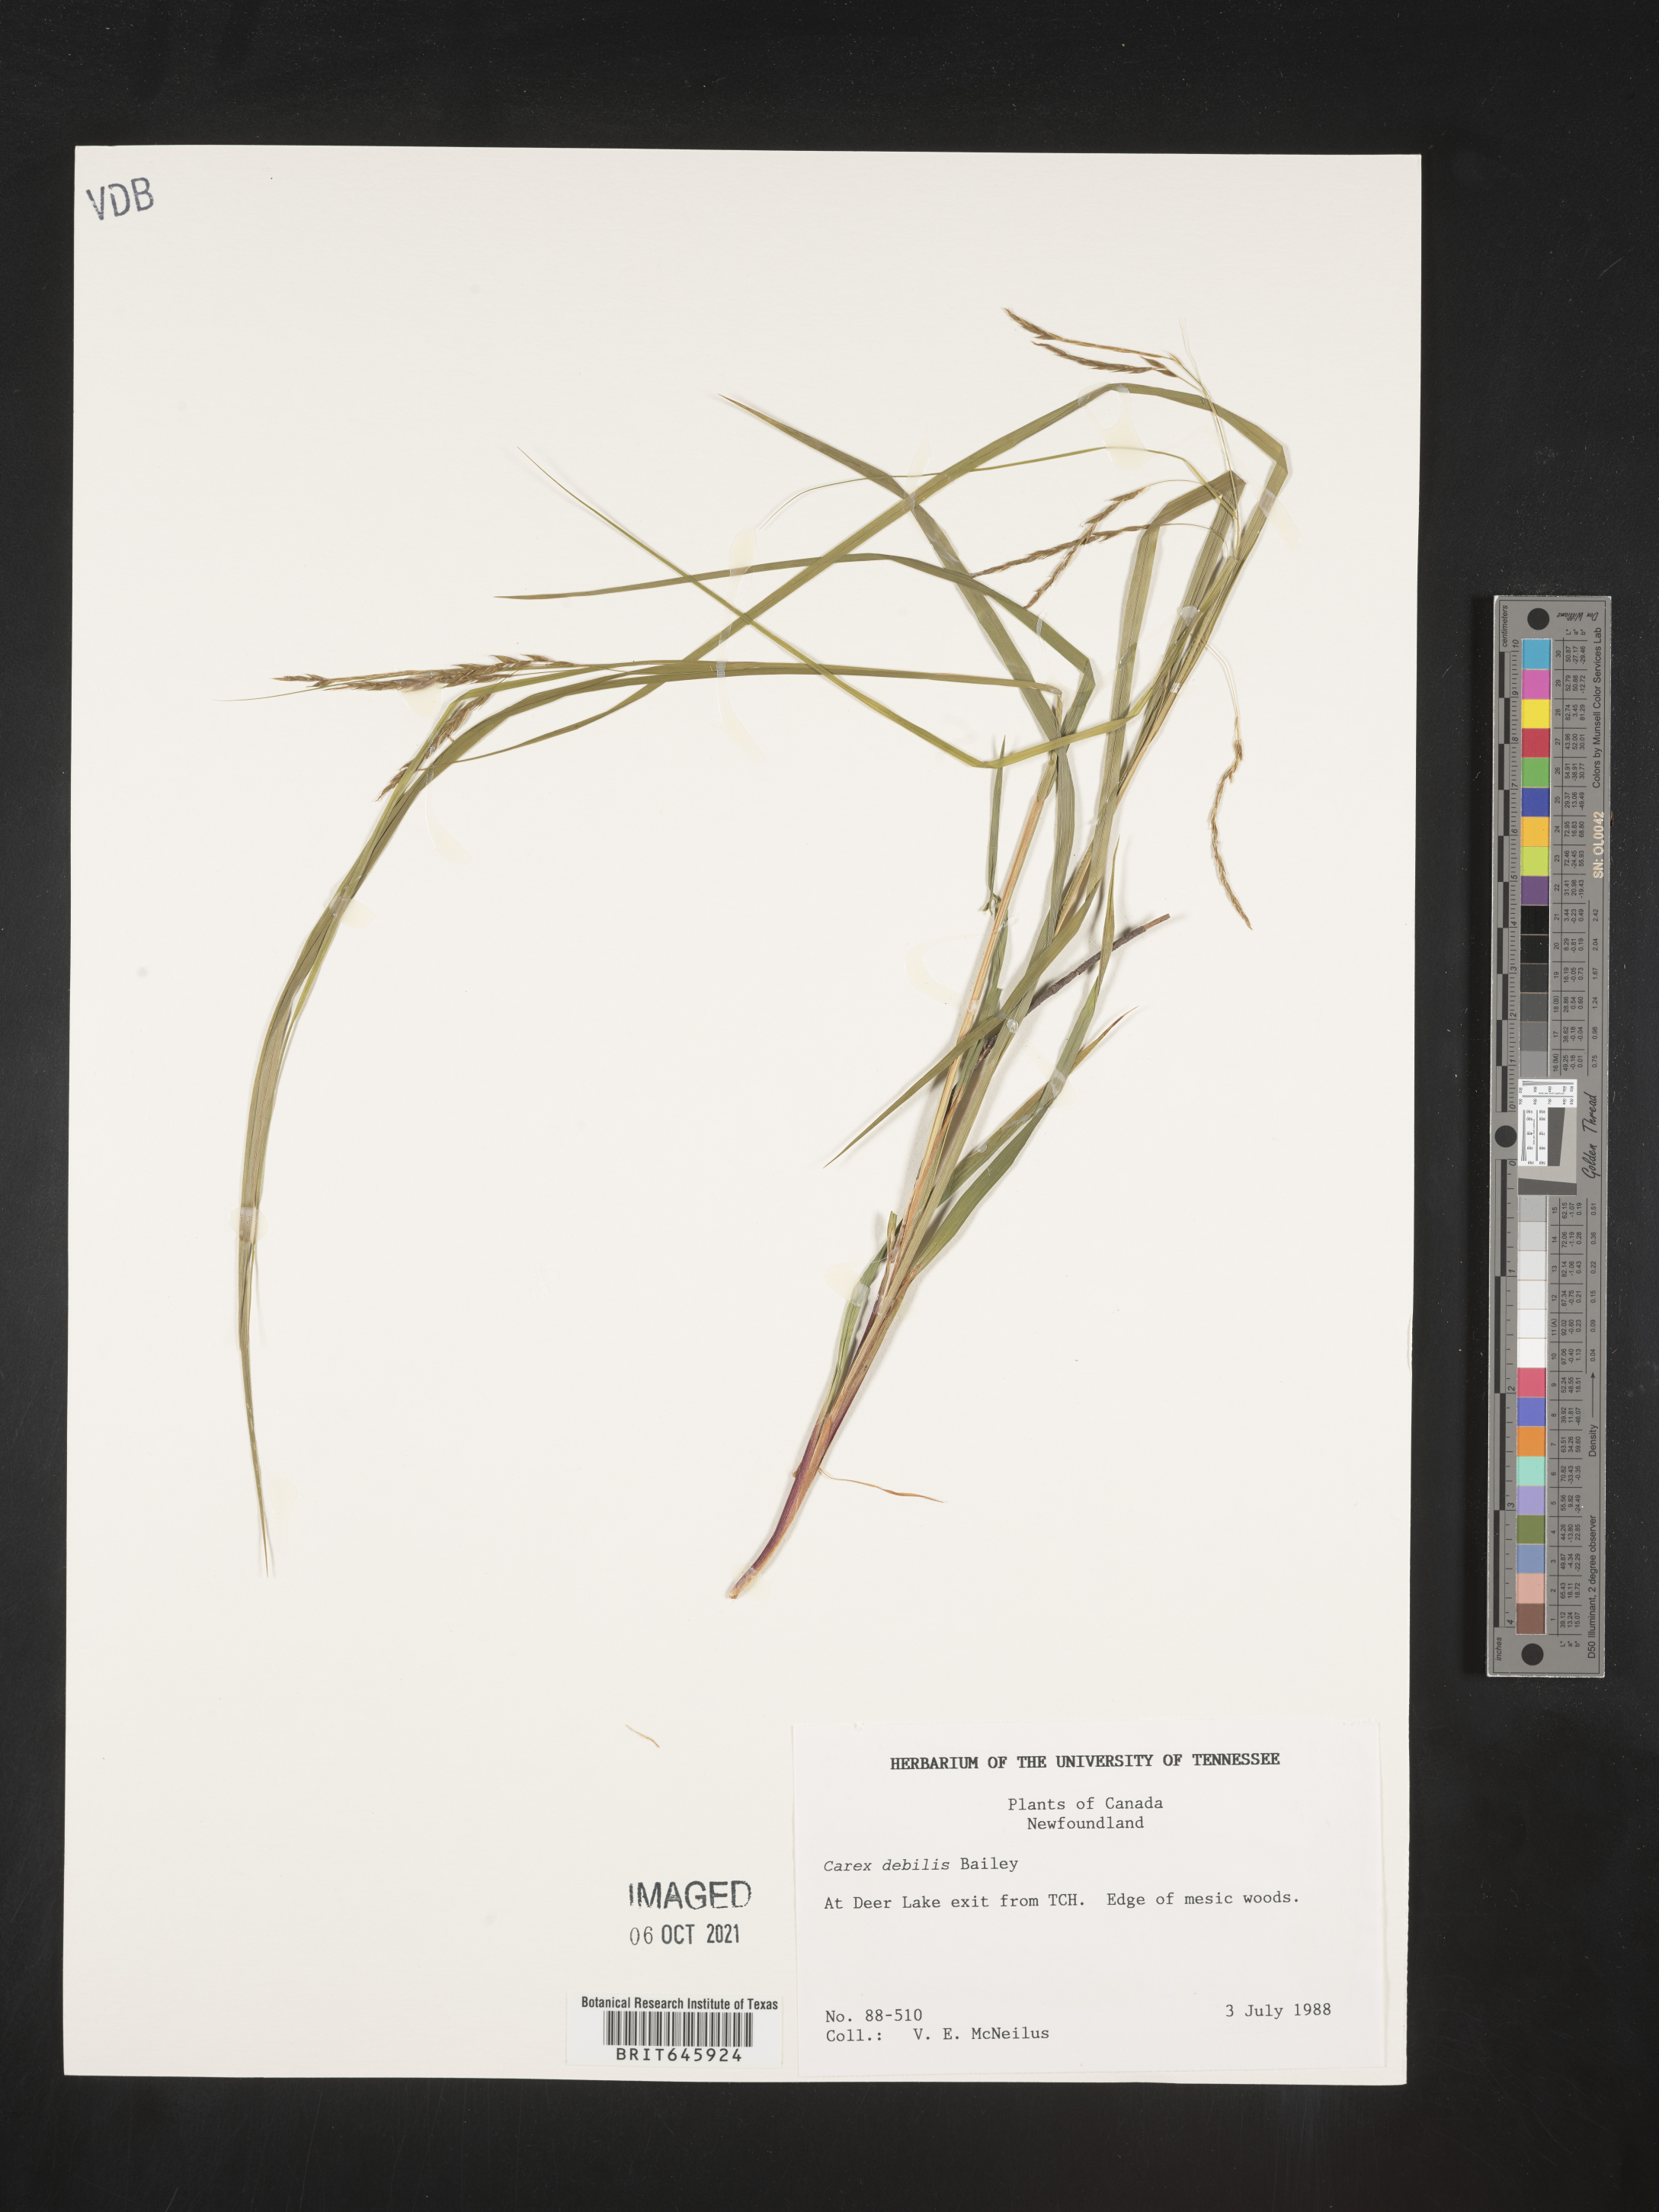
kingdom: Plantae
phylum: Tracheophyta
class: Liliopsida
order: Poales
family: Cyperaceae
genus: Carex
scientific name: Carex debilis
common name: White-edge sedge
